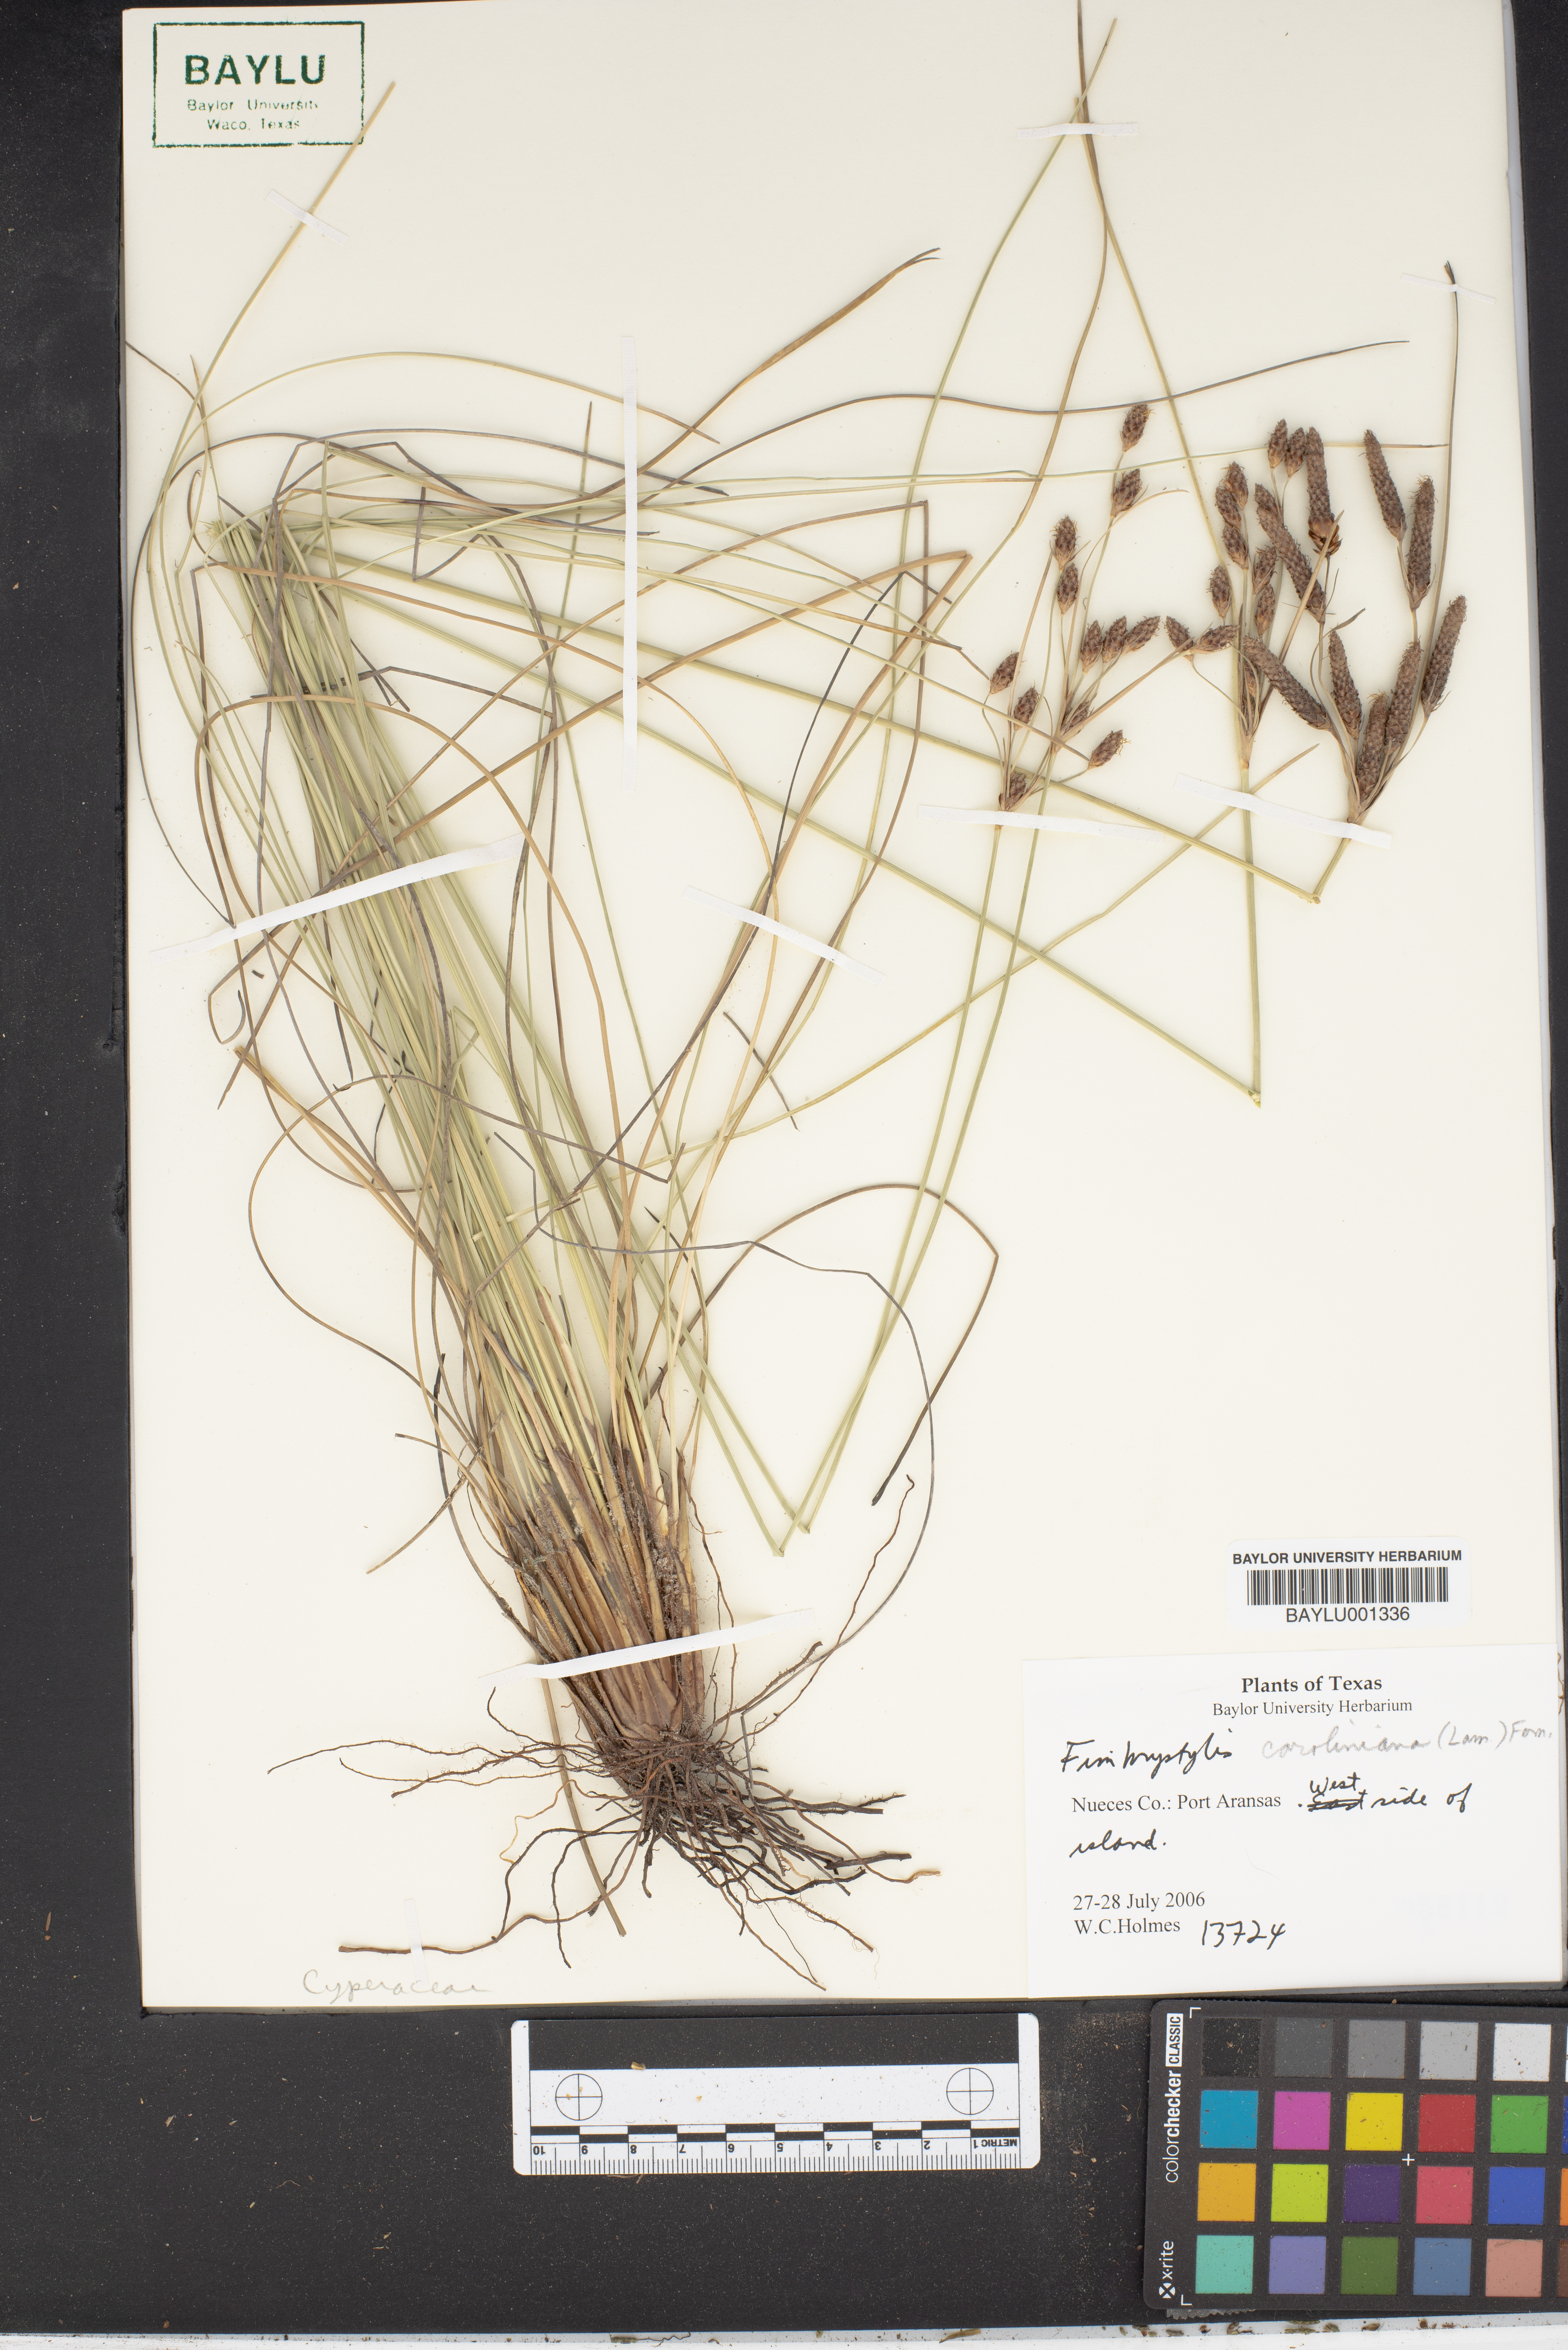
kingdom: Plantae
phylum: Tracheophyta
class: Liliopsida
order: Poales
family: Cyperaceae
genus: Fimbristylis
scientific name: Fimbristylis caroliniana
